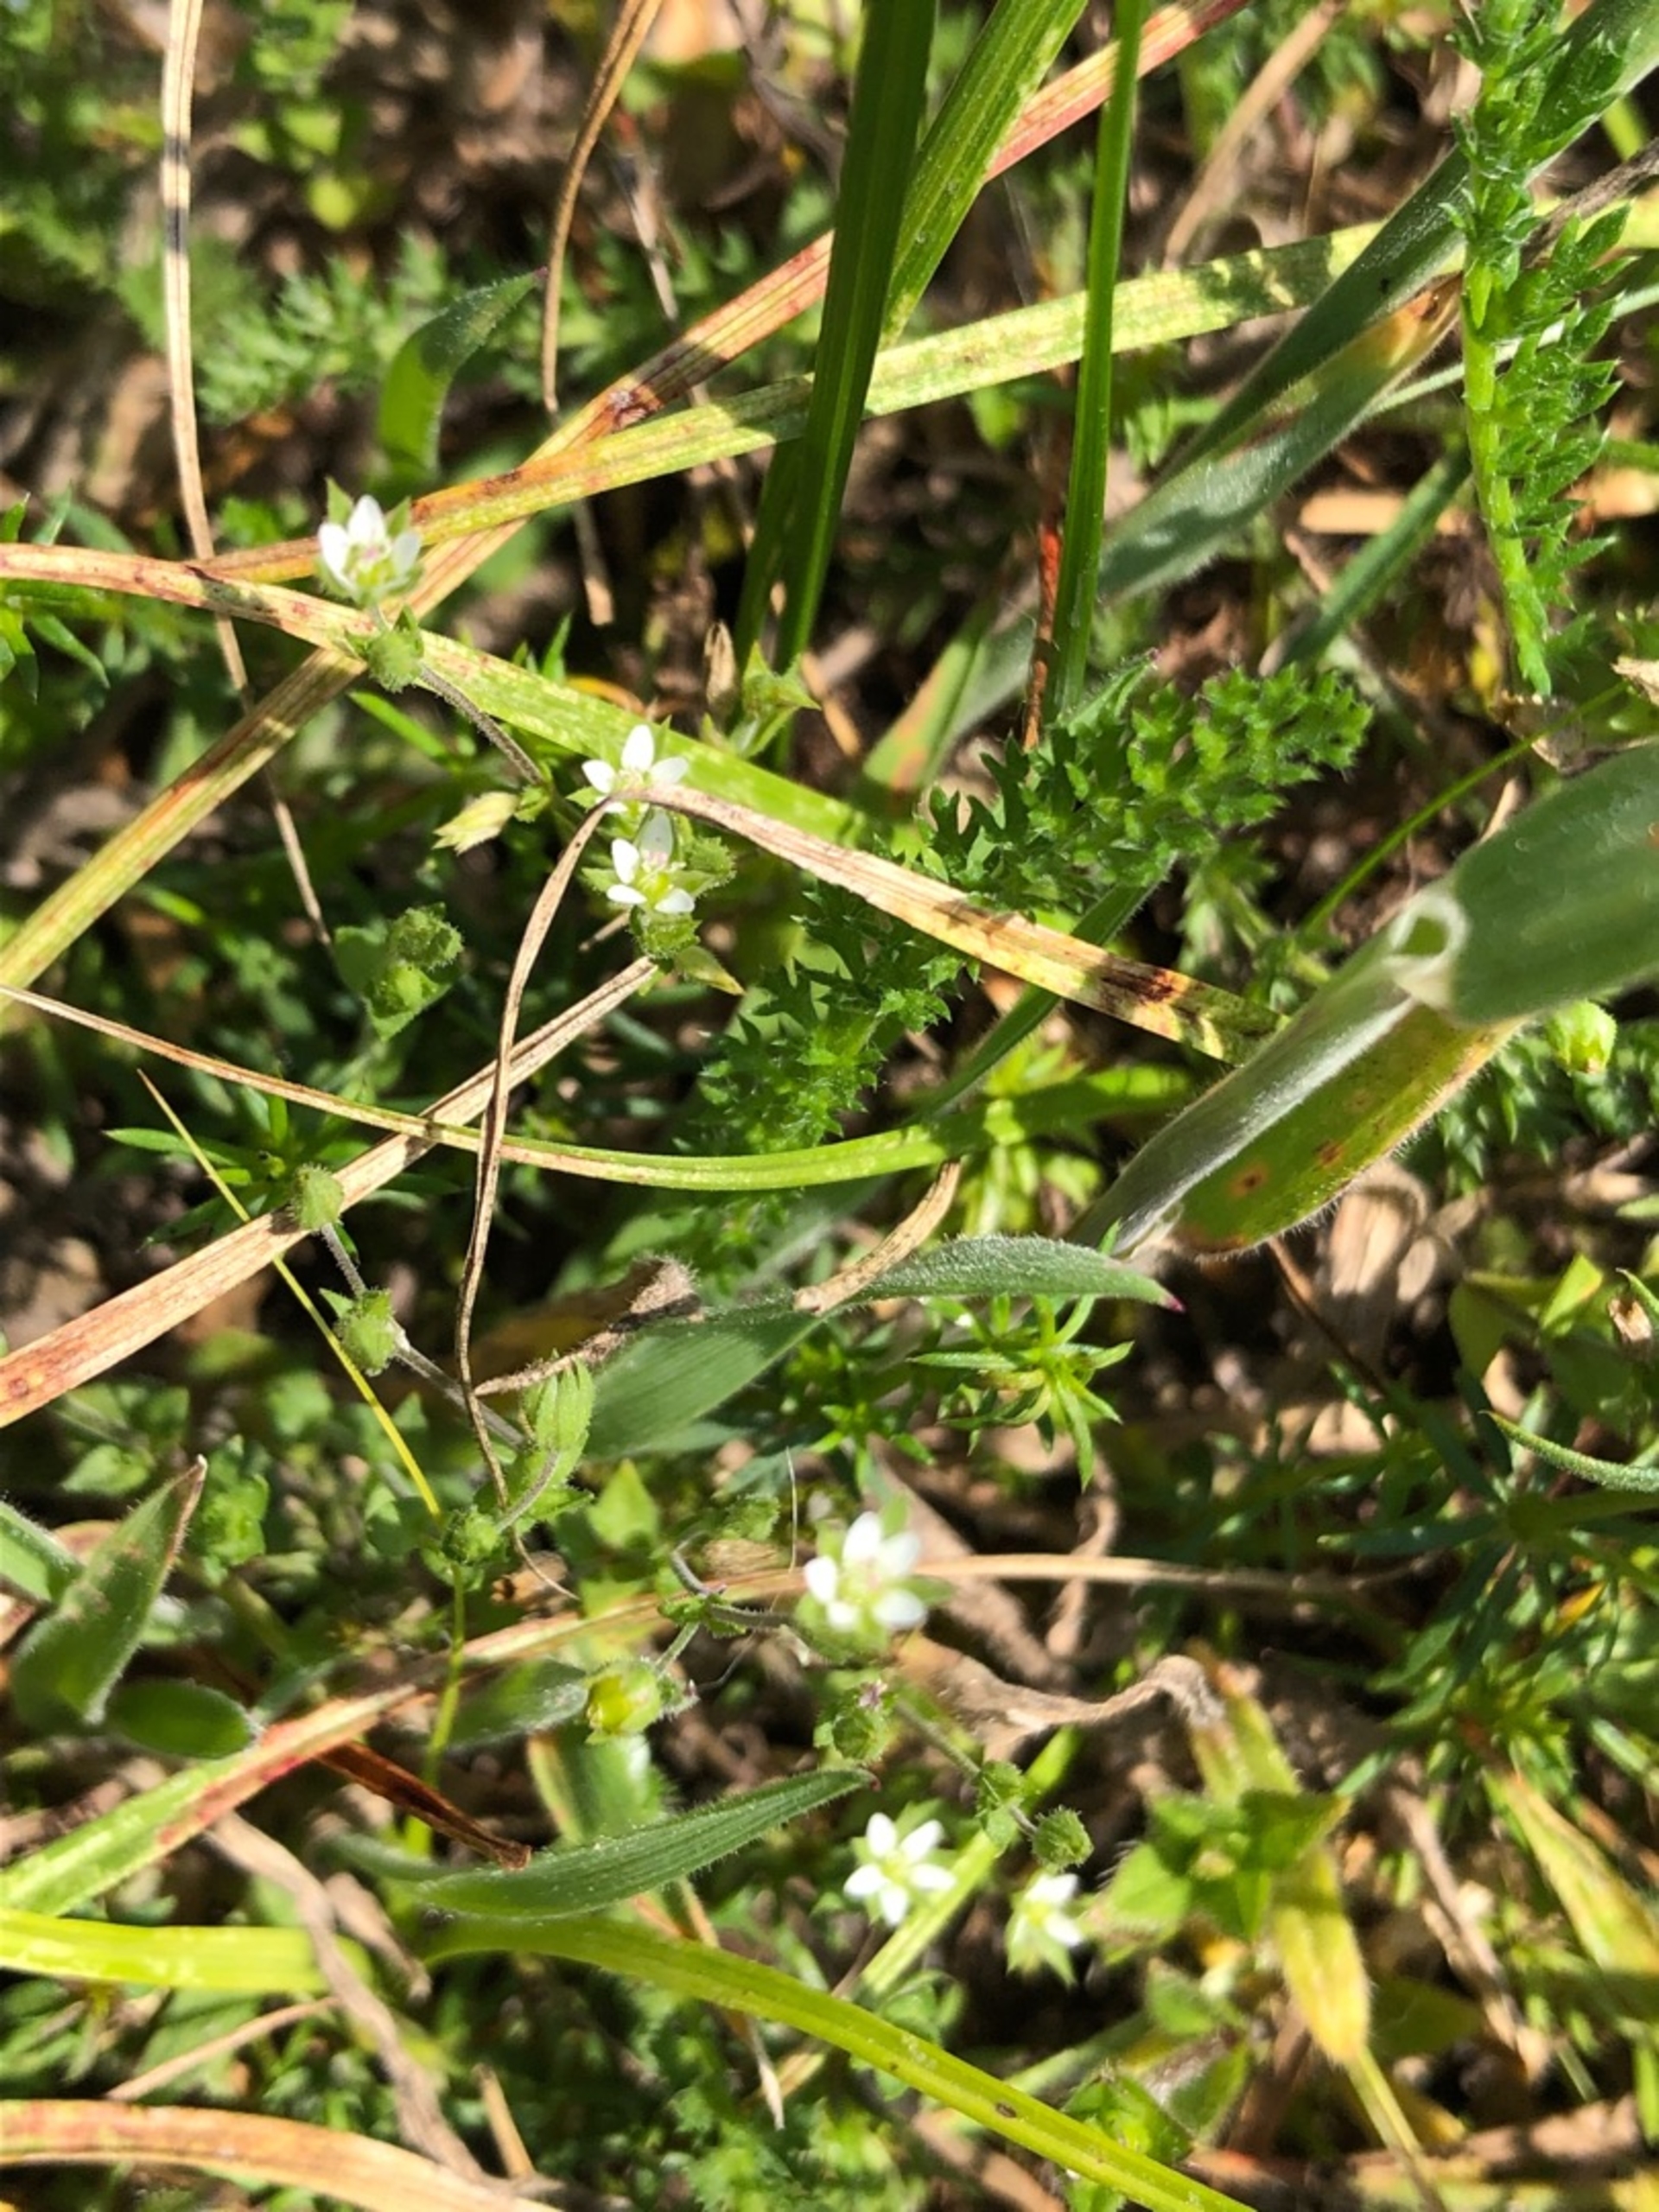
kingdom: Plantae
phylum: Tracheophyta
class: Magnoliopsida
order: Caryophyllales
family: Caryophyllaceae
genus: Arenaria
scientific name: Arenaria serpyllifolia
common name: Almindelig markarve
